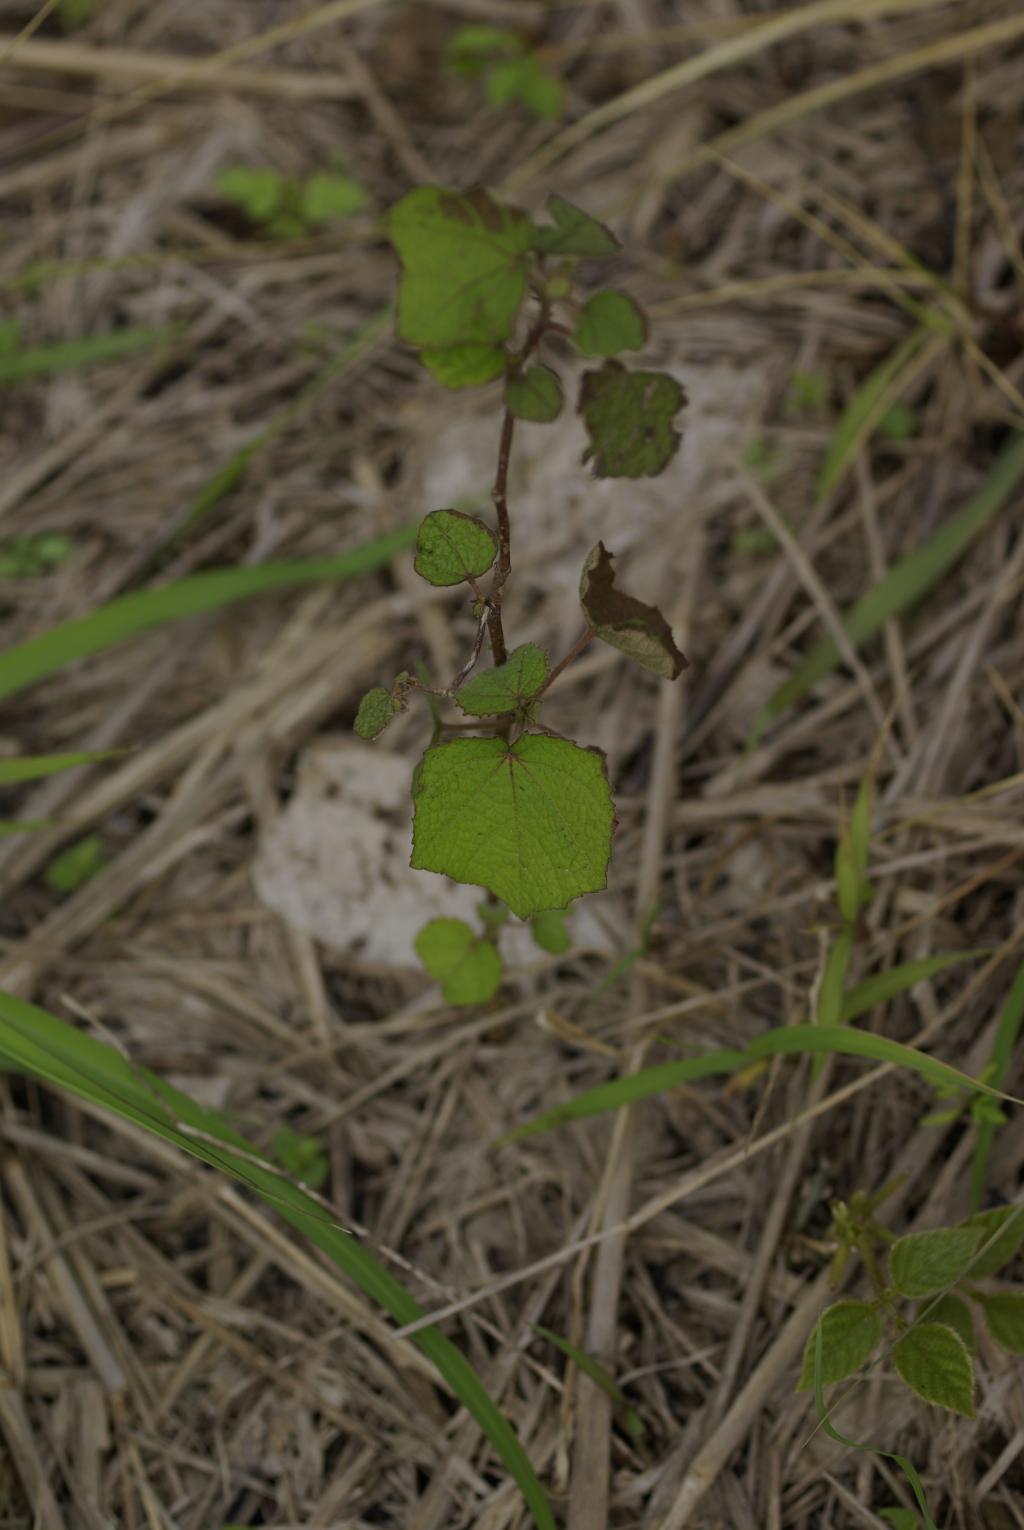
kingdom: Plantae
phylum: Tracheophyta
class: Magnoliopsida
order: Malvales
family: Malvaceae
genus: Urena
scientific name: Urena lobata
